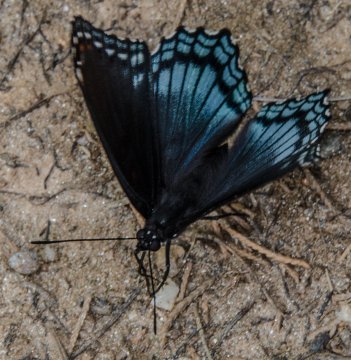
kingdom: Animalia
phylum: Arthropoda
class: Insecta
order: Lepidoptera
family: Nymphalidae
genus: Limenitis
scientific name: Limenitis arthemis
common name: Red-spotted Admiral
